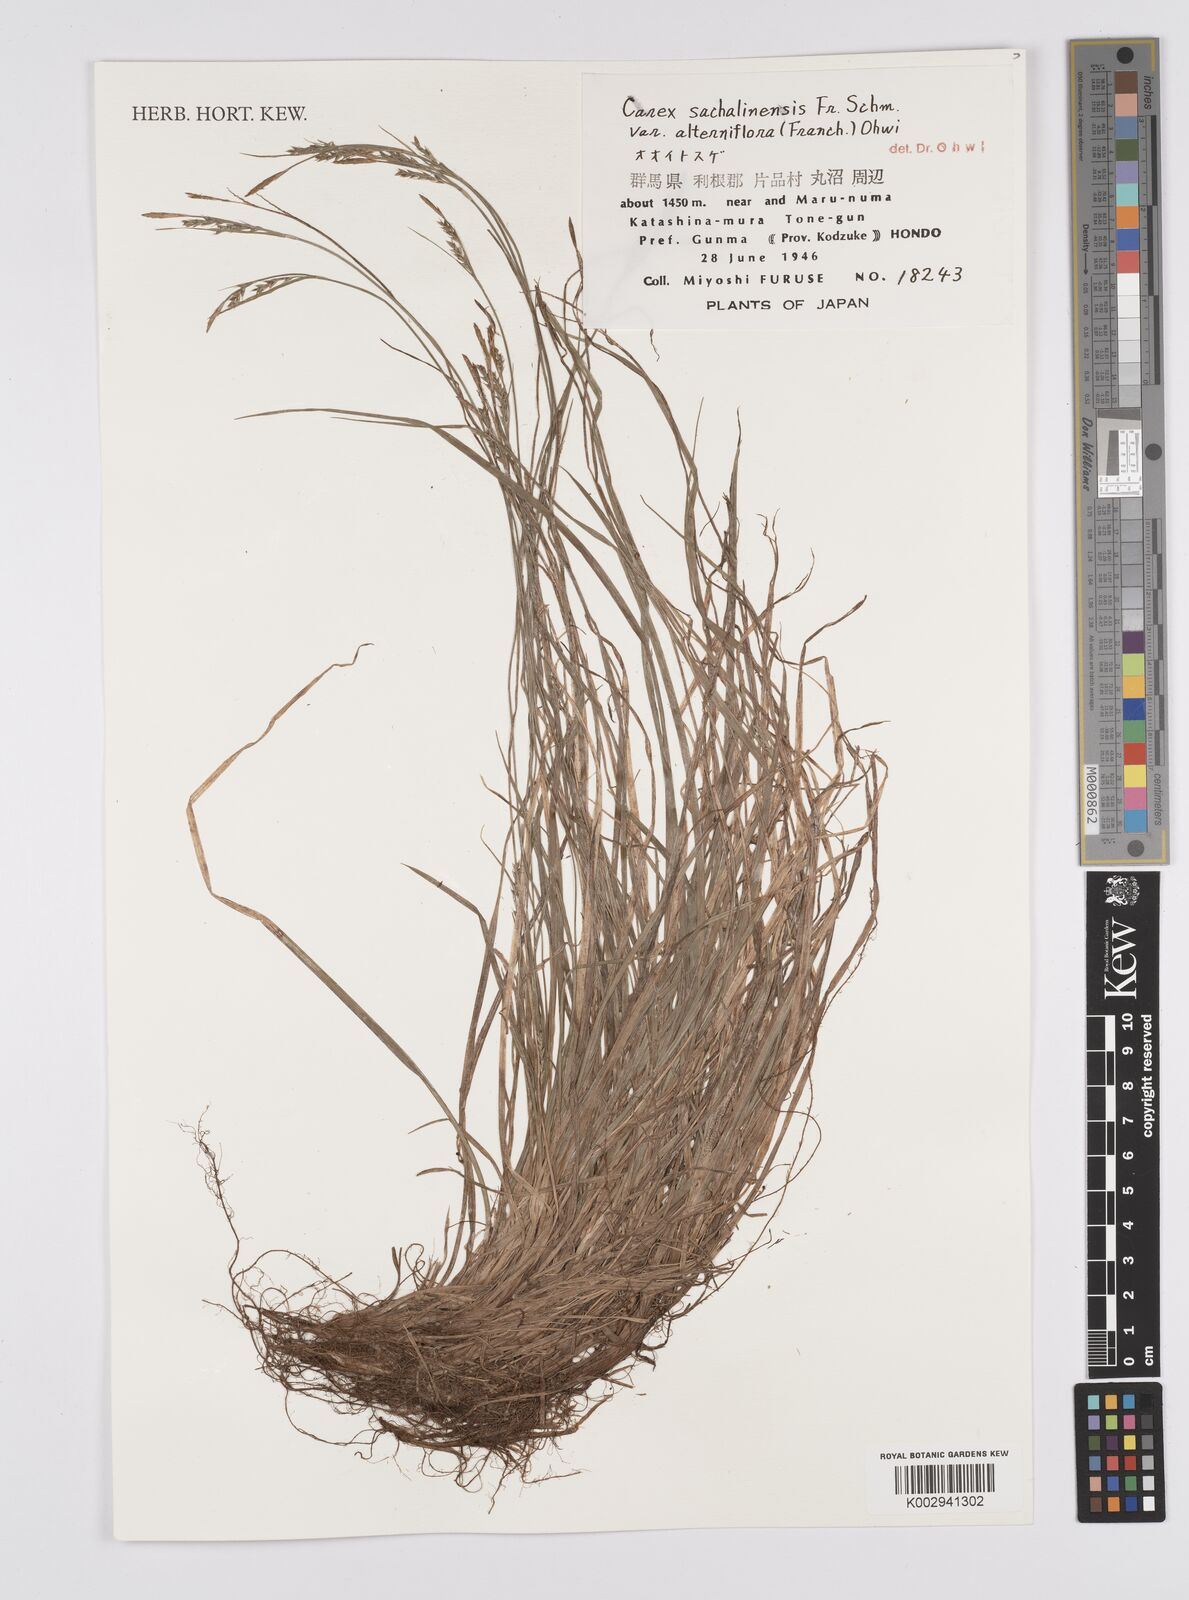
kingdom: Plantae
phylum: Tracheophyta
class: Liliopsida
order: Poales
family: Cyperaceae
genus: Carex
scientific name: Carex pisiformis
